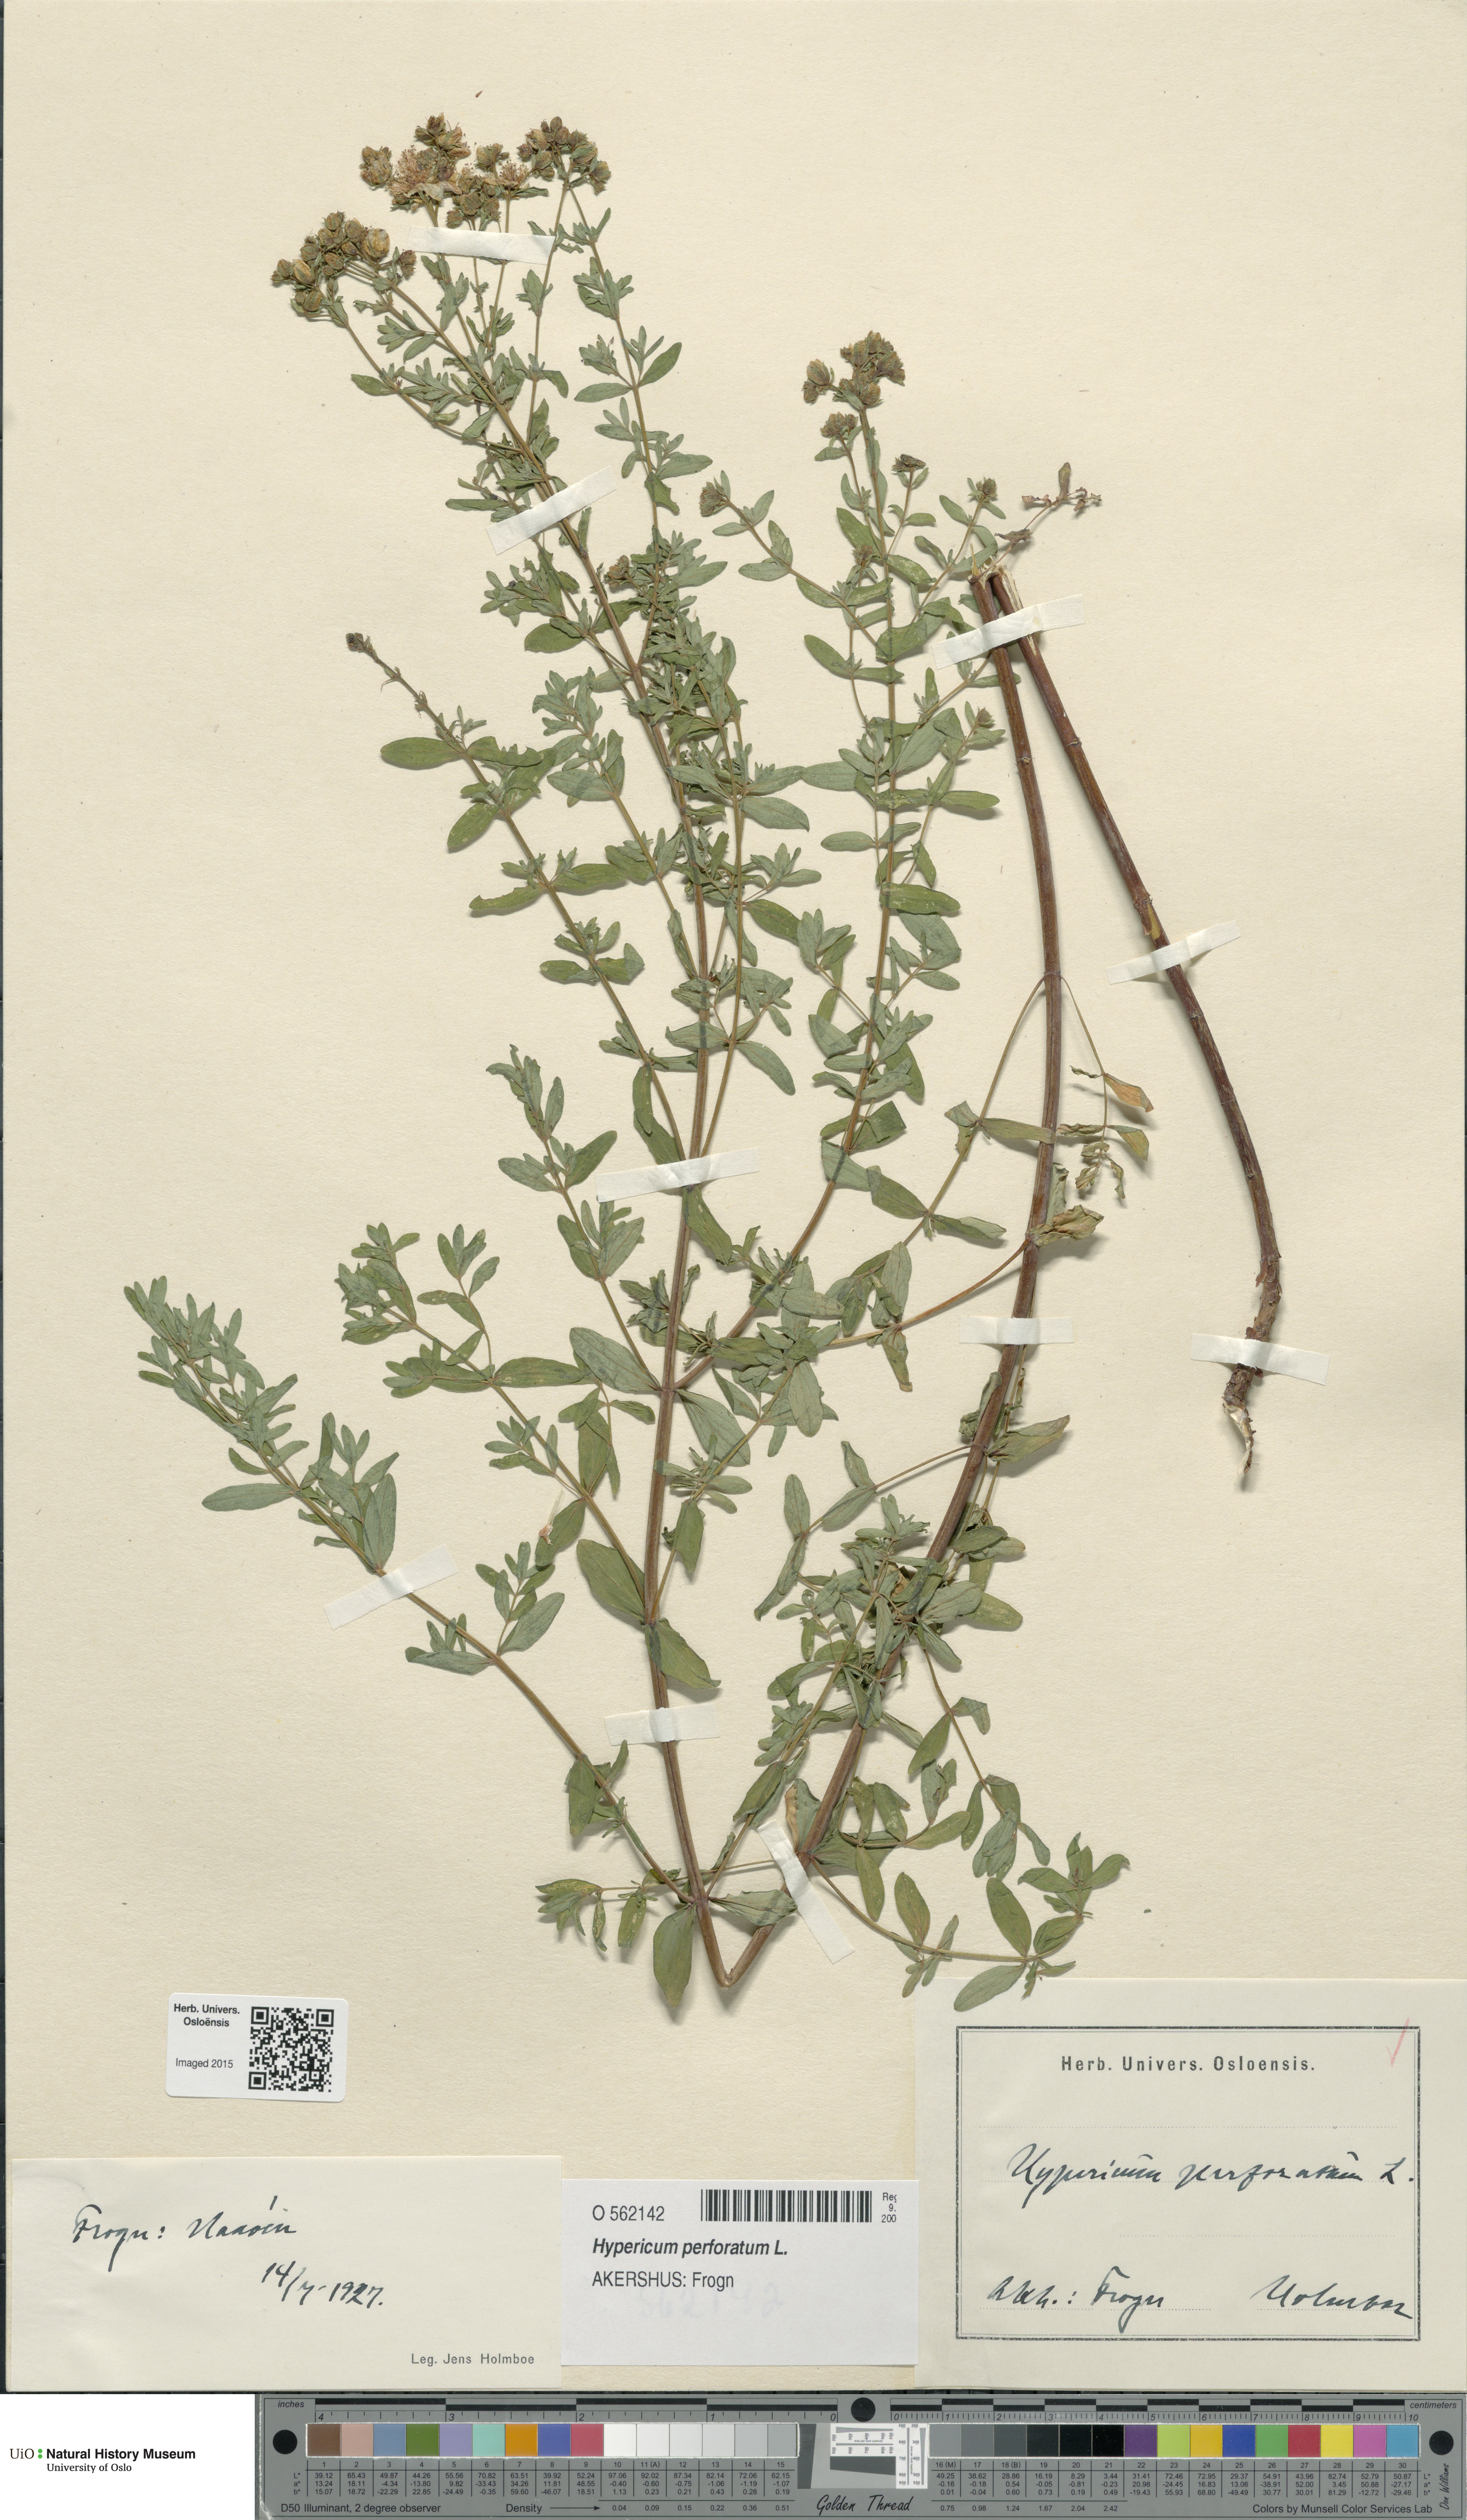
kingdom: Plantae
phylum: Tracheophyta
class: Magnoliopsida
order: Malpighiales
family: Hypericaceae
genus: Hypericum
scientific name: Hypericum perforatum
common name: Common st. johnswort
